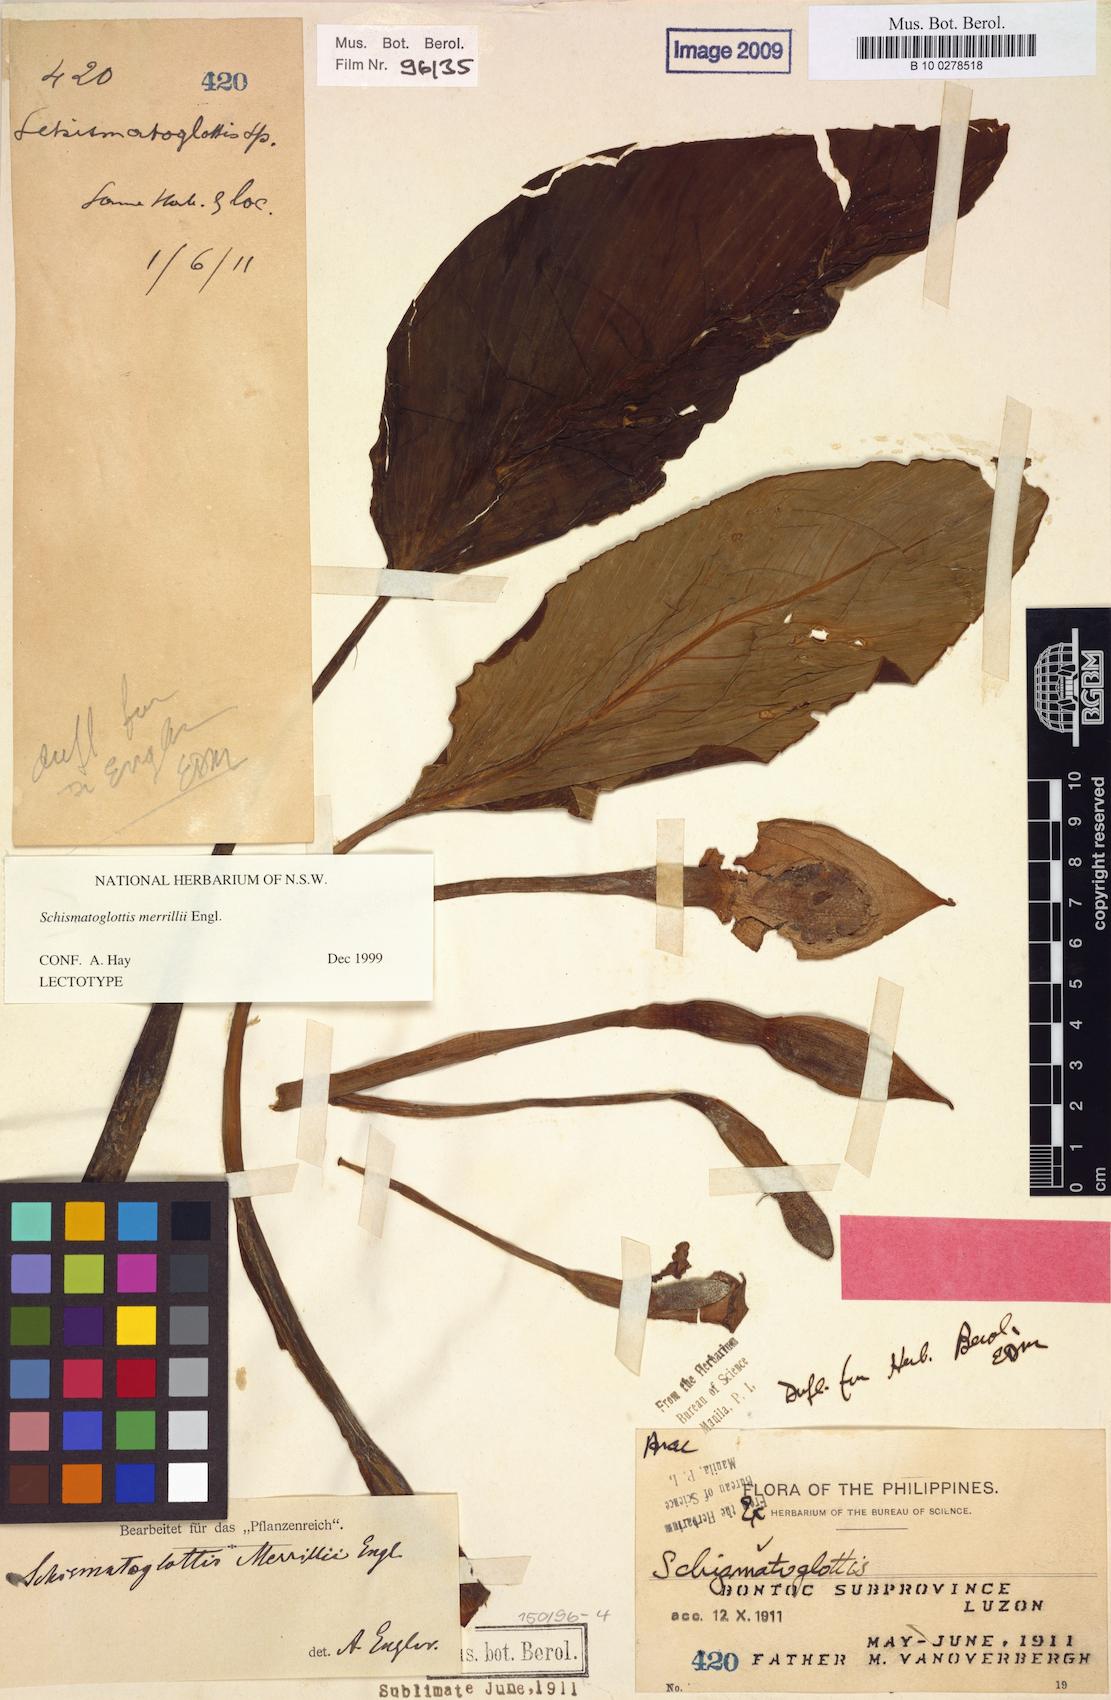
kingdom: Plantae
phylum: Tracheophyta
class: Liliopsida
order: Alismatales
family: Araceae
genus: Schismatoglottis
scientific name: Schismatoglottis merrillii
